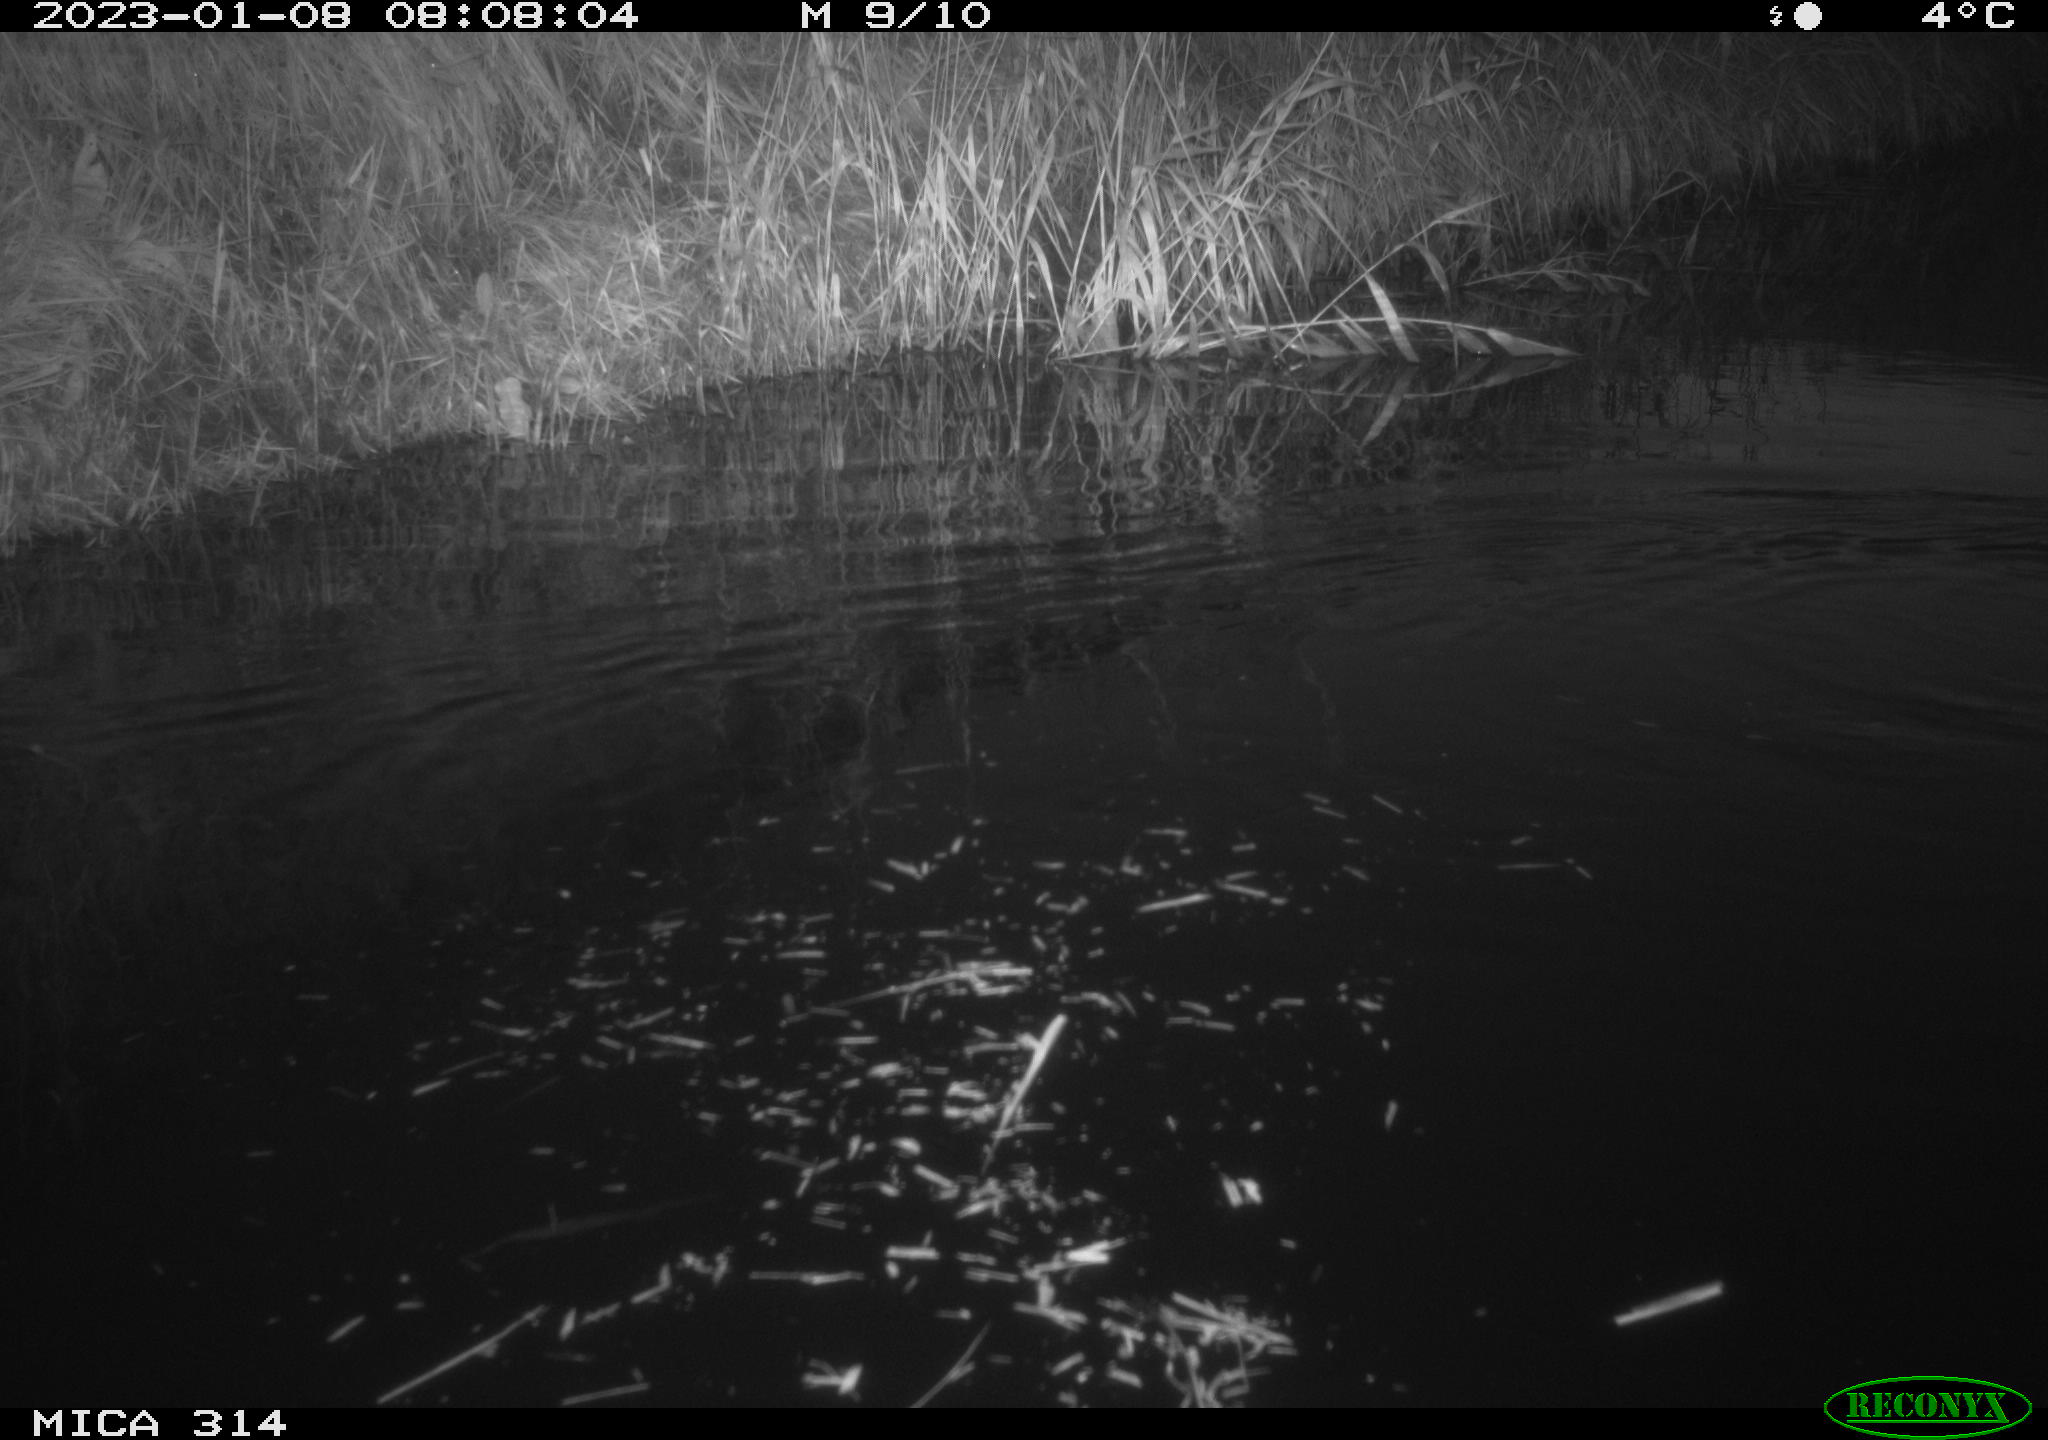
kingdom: Animalia
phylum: Chordata
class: Aves
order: Gruiformes
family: Rallidae
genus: Gallinula
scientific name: Gallinula chloropus
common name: Common moorhen
